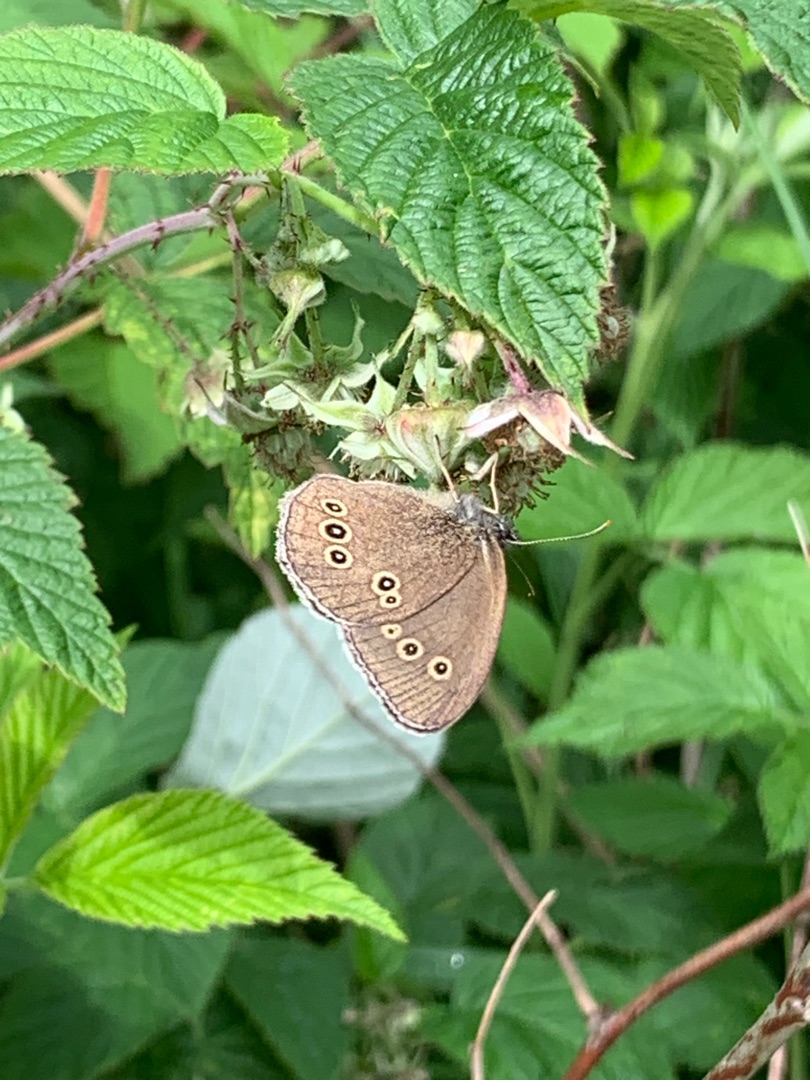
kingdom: Animalia
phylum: Arthropoda
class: Insecta
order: Lepidoptera
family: Nymphalidae
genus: Aphantopus
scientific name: Aphantopus hyperantus
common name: Engrandøje
